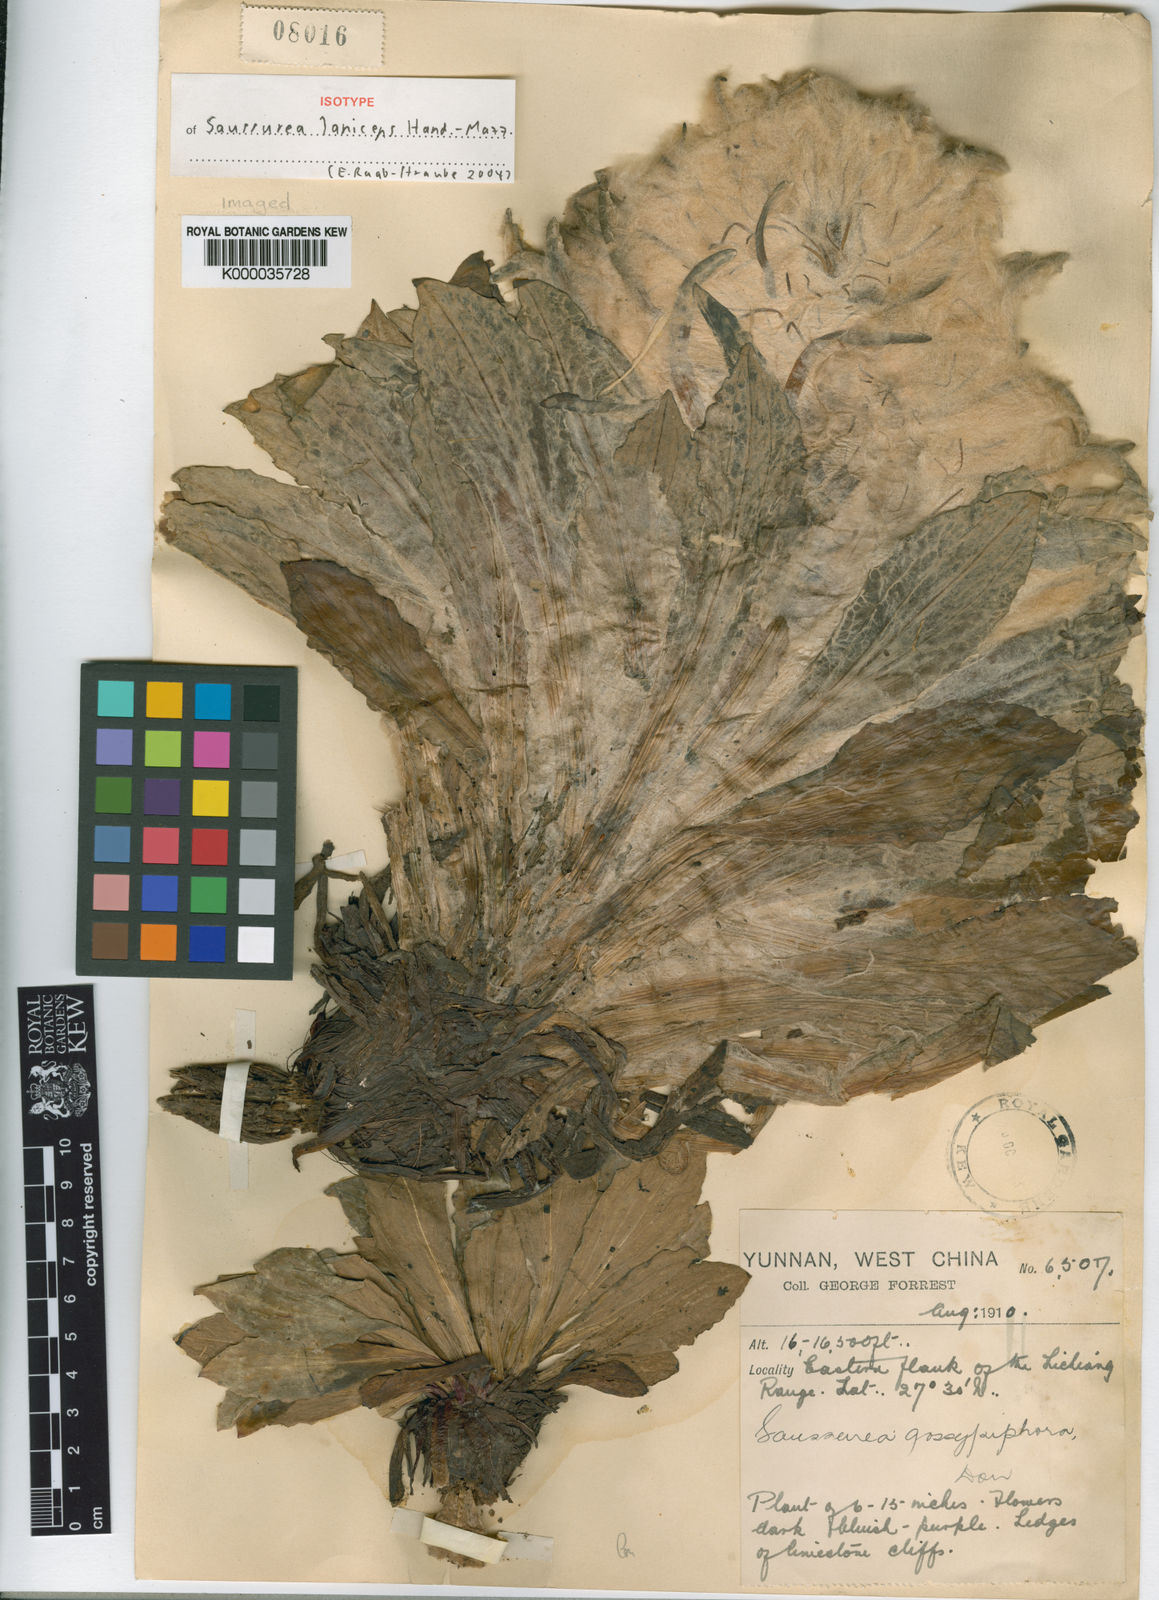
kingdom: Plantae
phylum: Tracheophyta
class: Magnoliopsida
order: Asterales
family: Asteraceae
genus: Saussurea
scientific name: Saussurea laniceps
